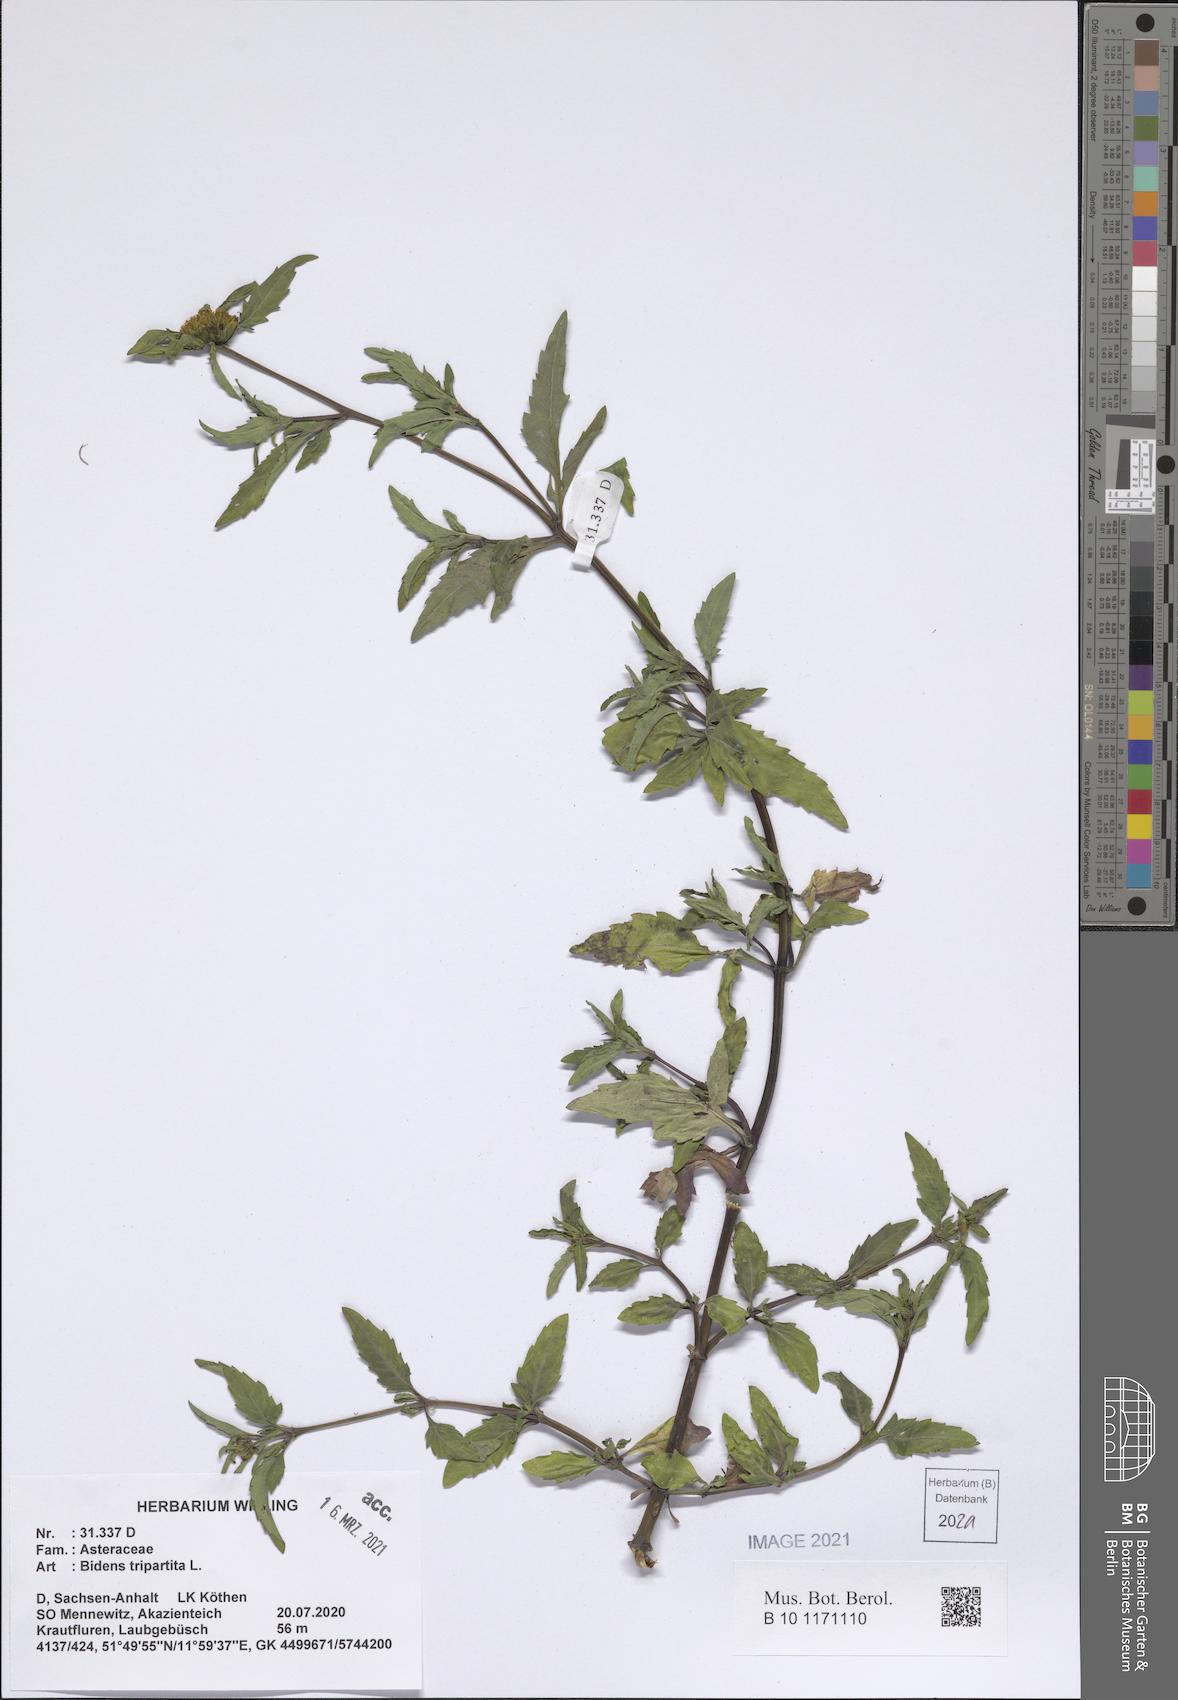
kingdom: Plantae
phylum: Tracheophyta
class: Magnoliopsida
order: Asterales
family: Asteraceae
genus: Bidens
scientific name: Bidens tripartita
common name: Trifid bur-marigold
